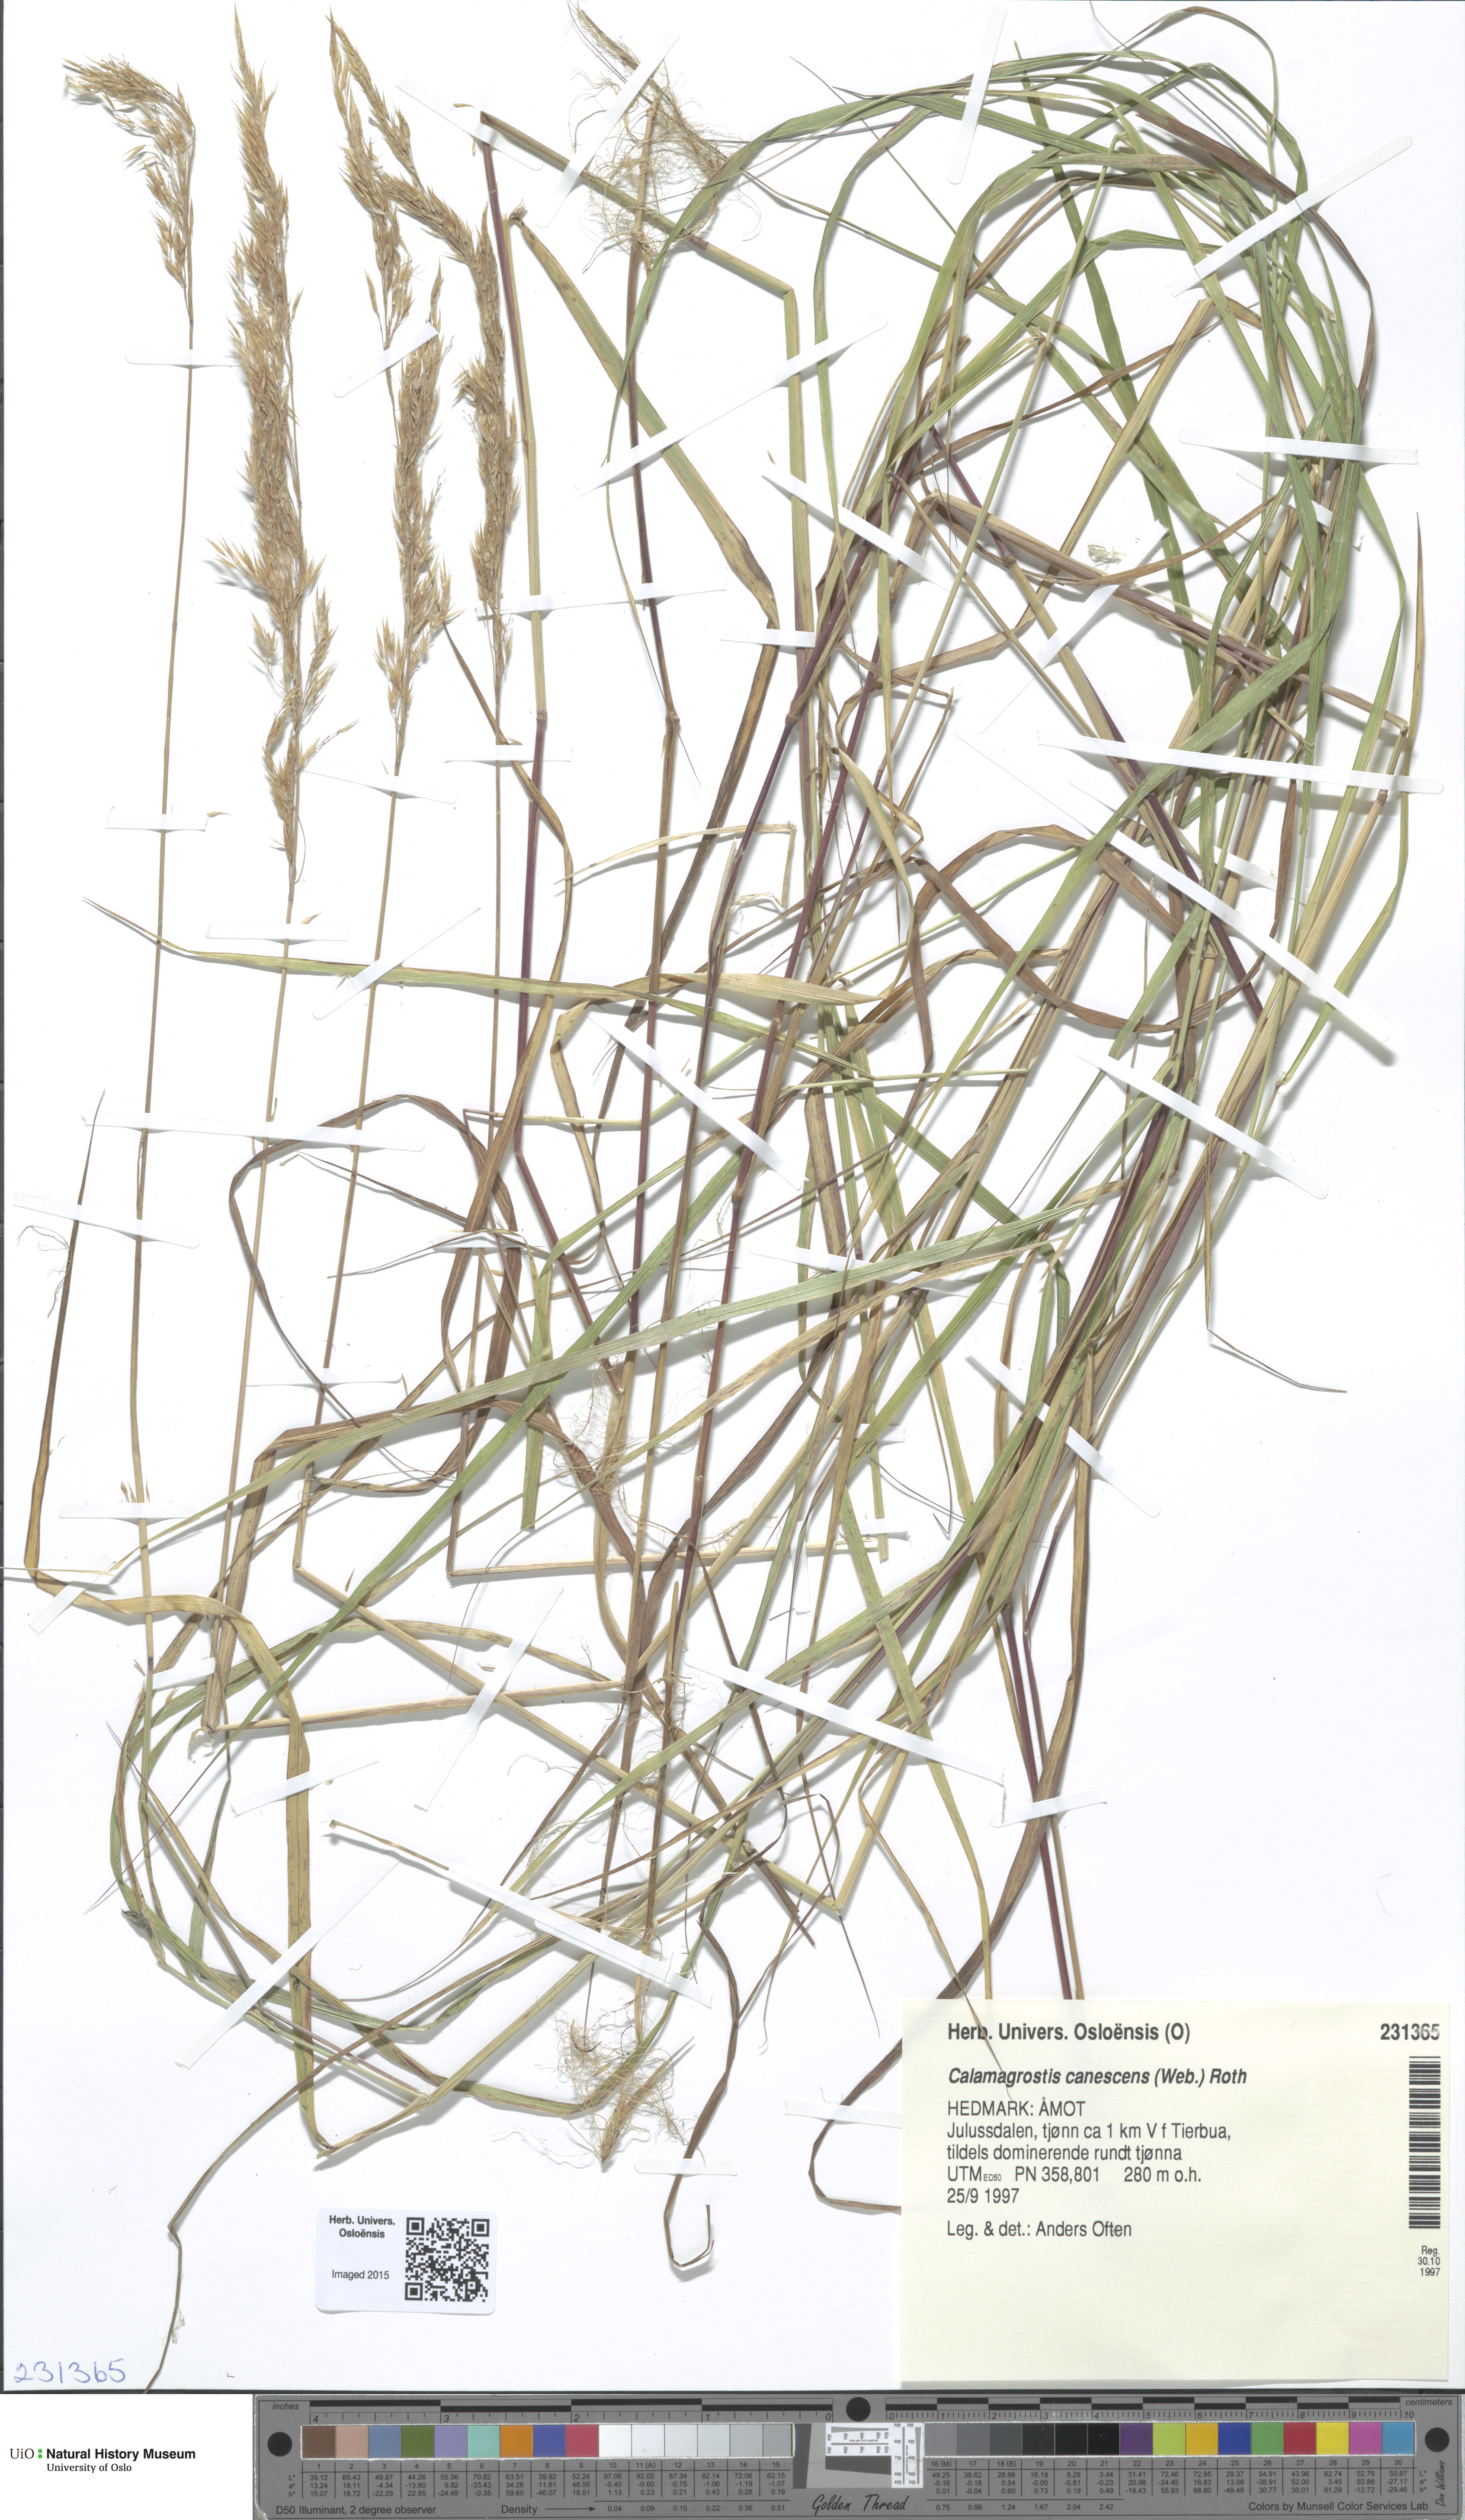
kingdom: Plantae
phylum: Tracheophyta
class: Liliopsida
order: Poales
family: Poaceae
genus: Calamagrostis
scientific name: Calamagrostis canescens
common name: Purple small-reed
